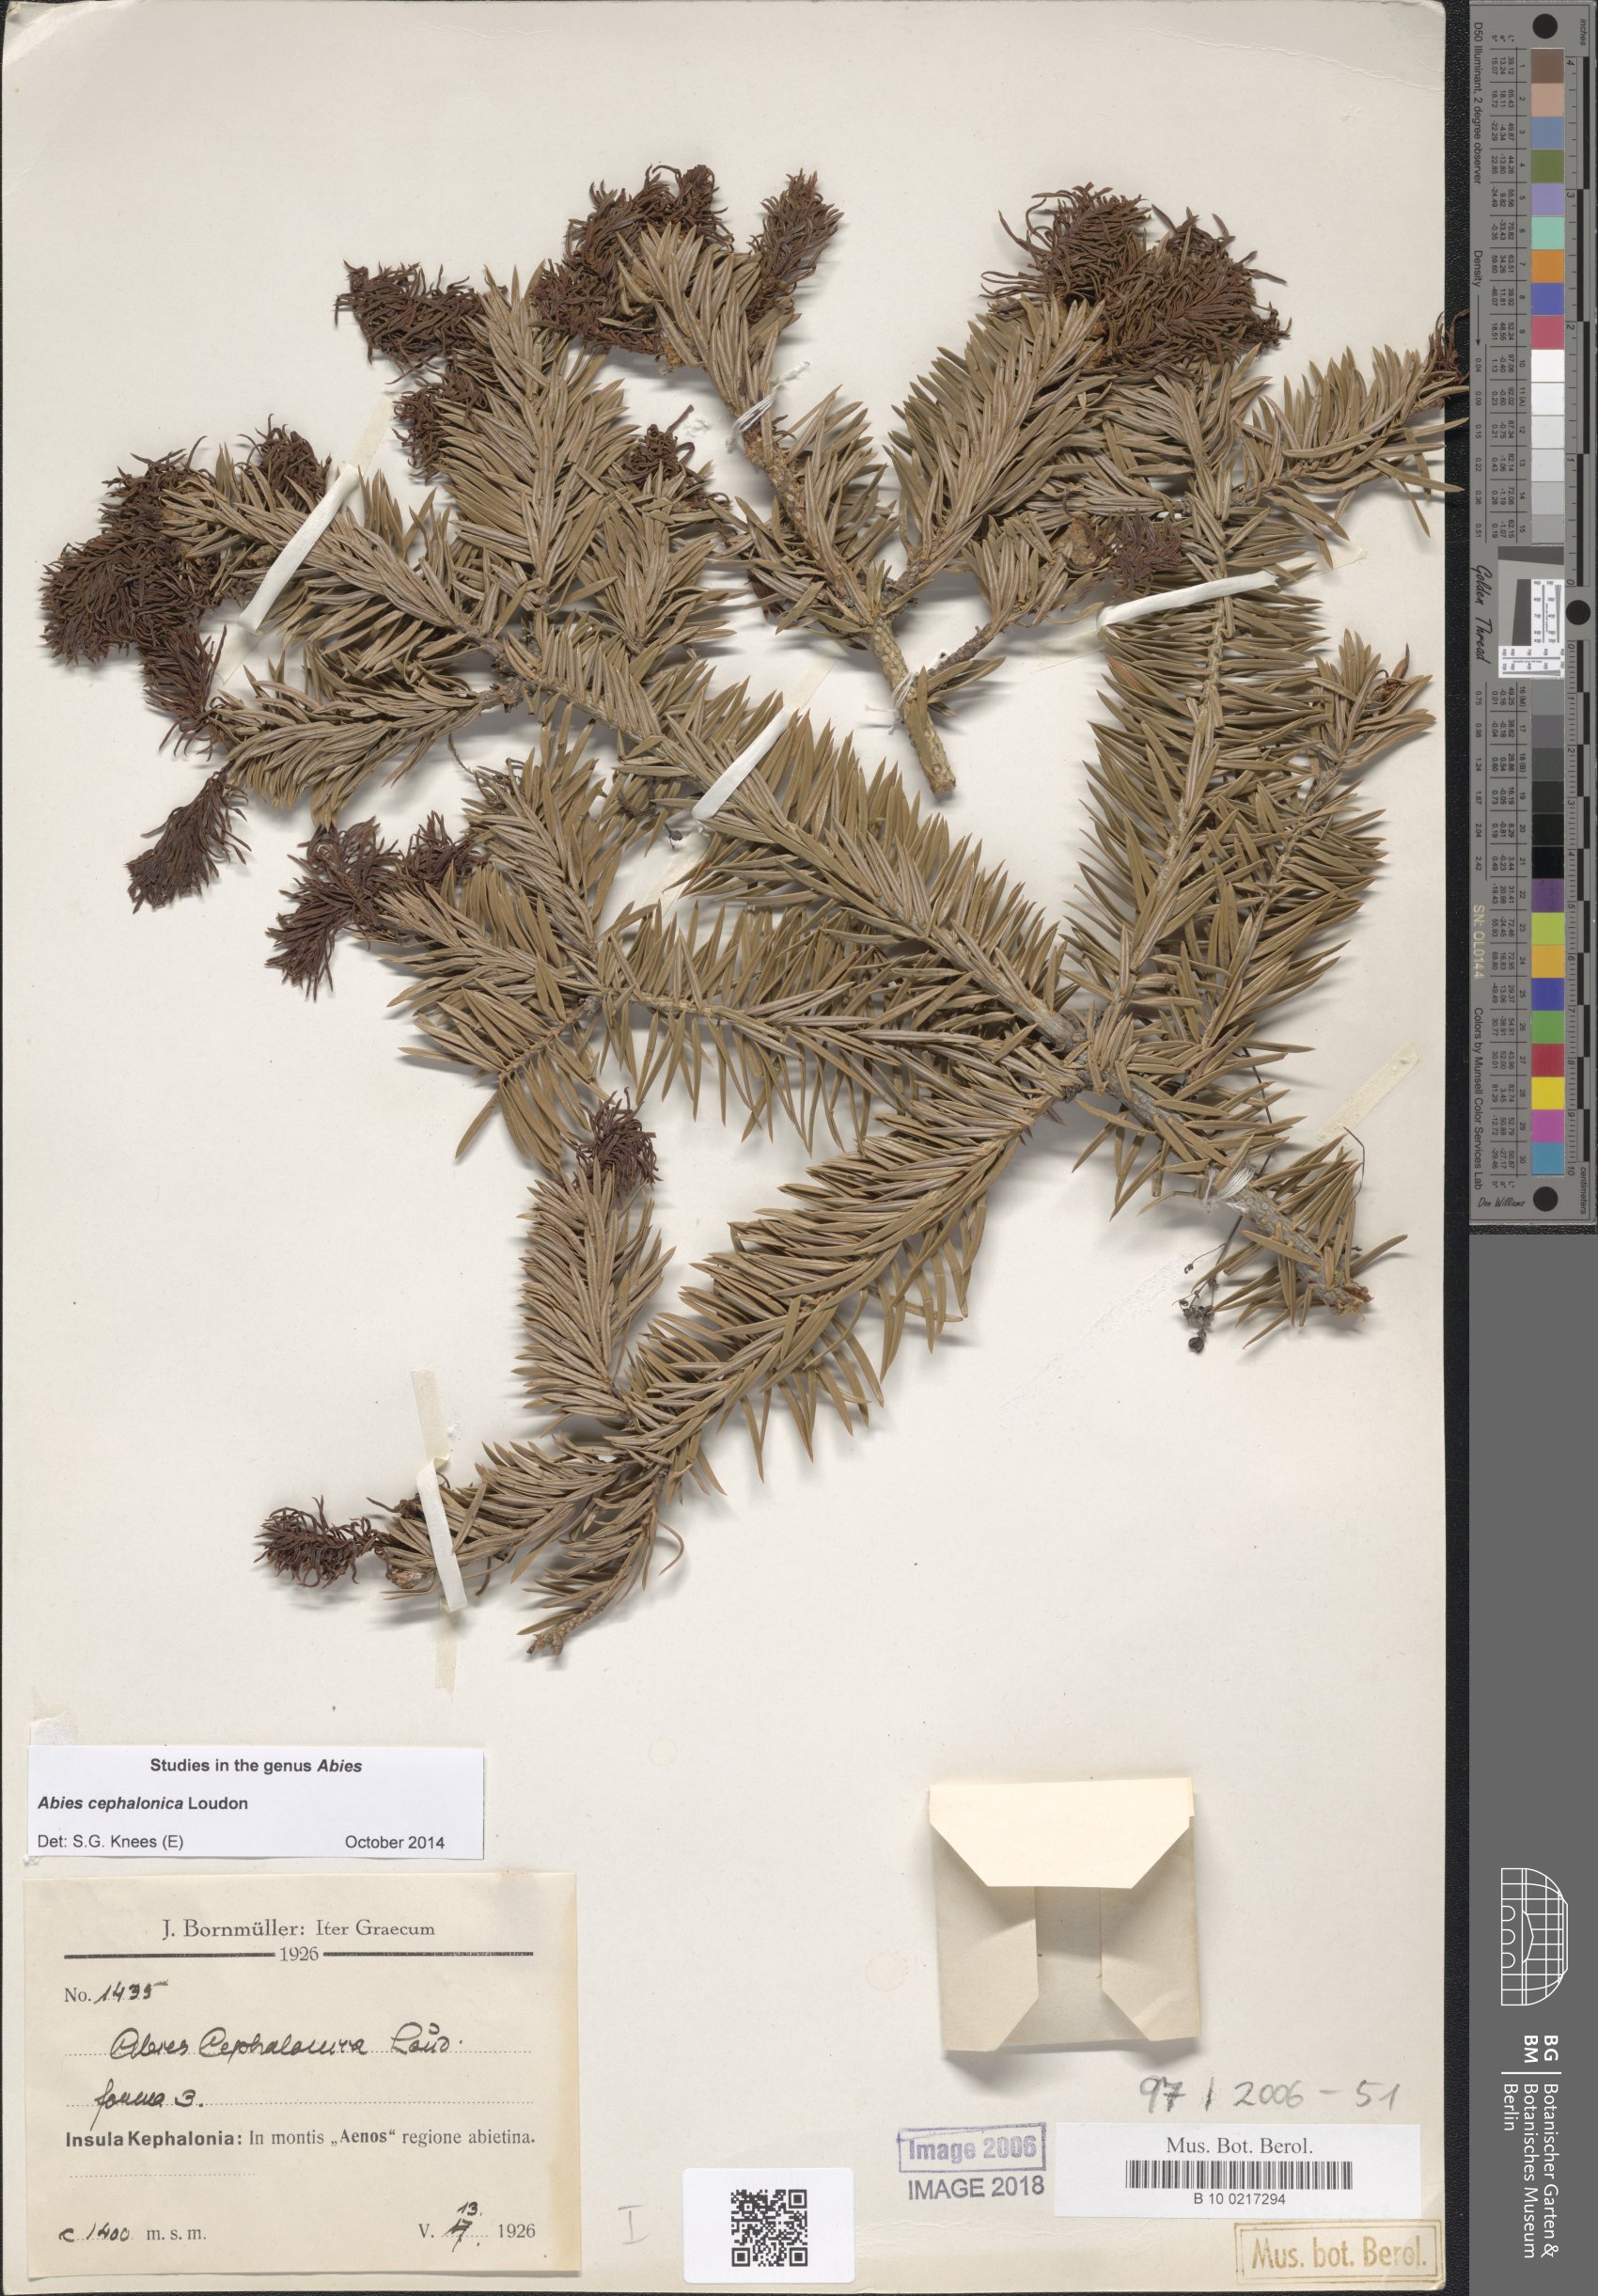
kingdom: Plantae
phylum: Tracheophyta
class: Pinopsida
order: Pinales
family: Pinaceae
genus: Abies
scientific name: Abies cephalonica
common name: Greek fir
